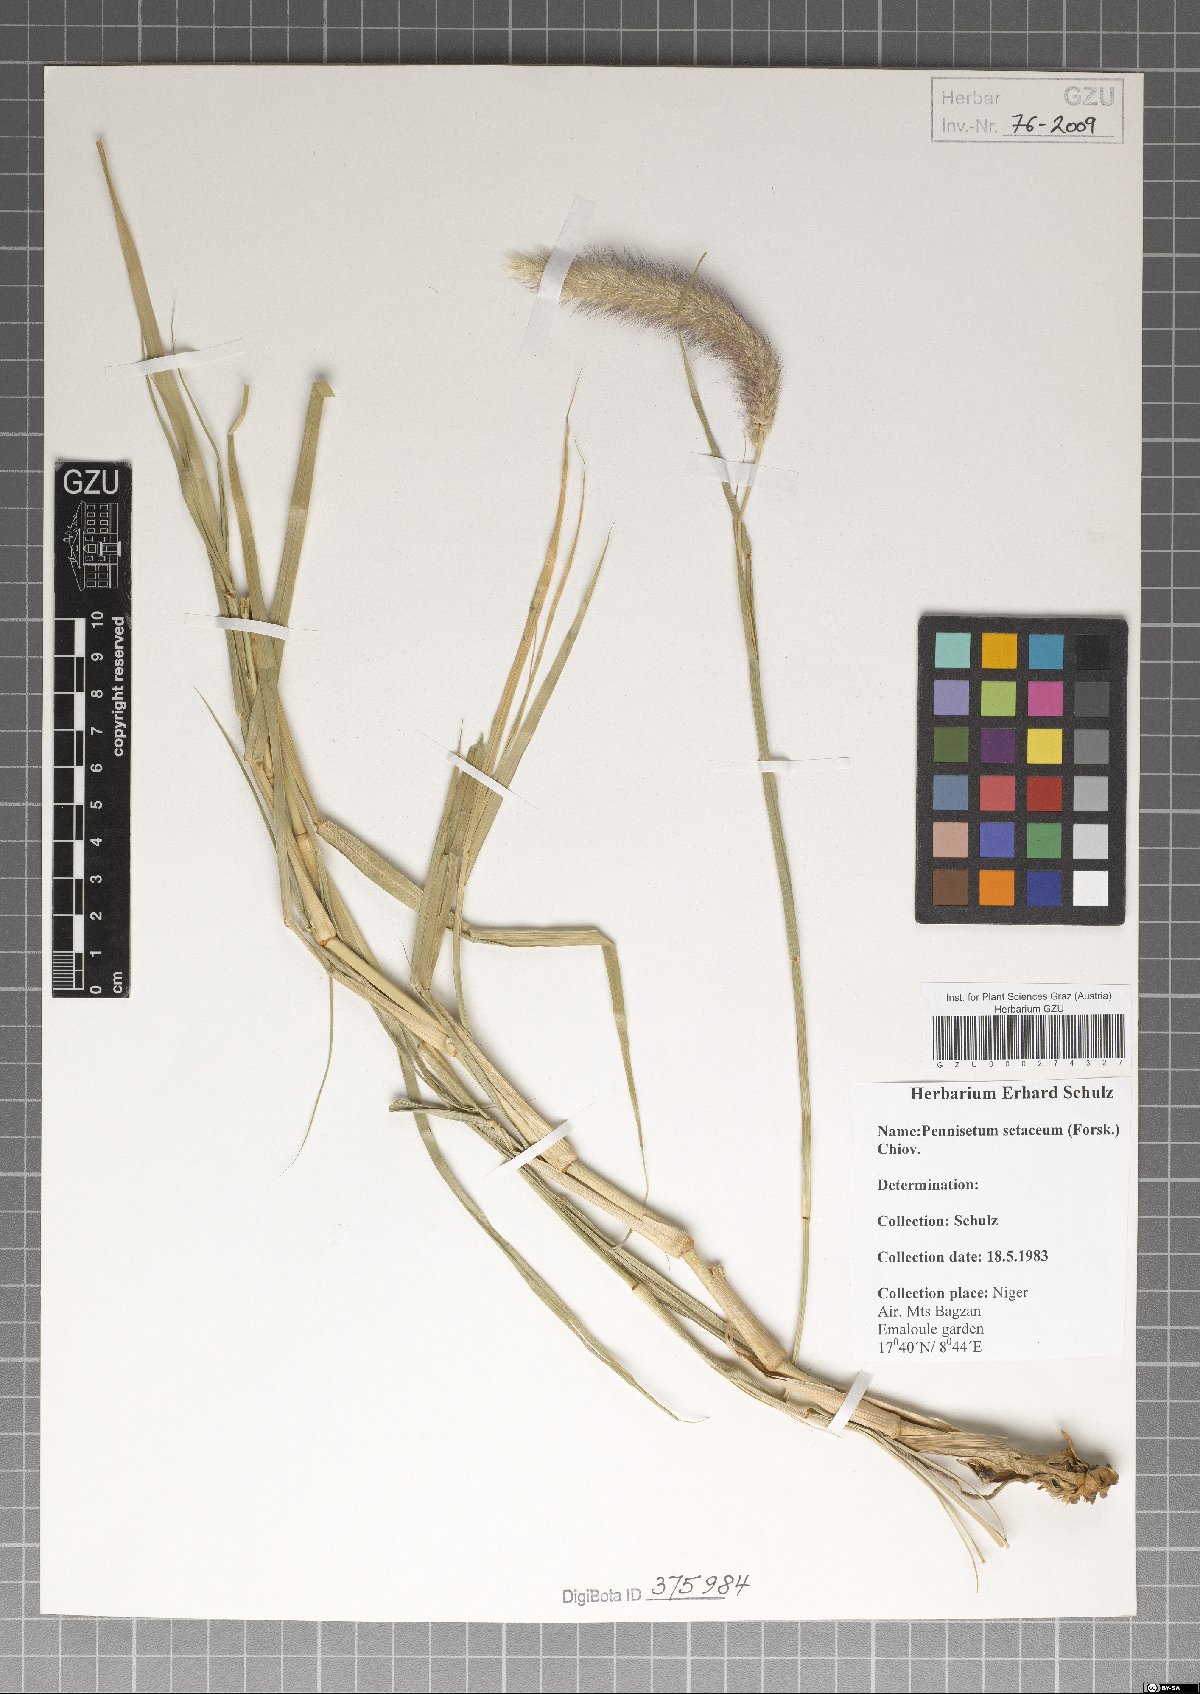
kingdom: Plantae
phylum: Tracheophyta
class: Liliopsida
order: Poales
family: Poaceae
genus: Cenchrus
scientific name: Cenchrus setaceus
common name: Crimson fountaingrass
